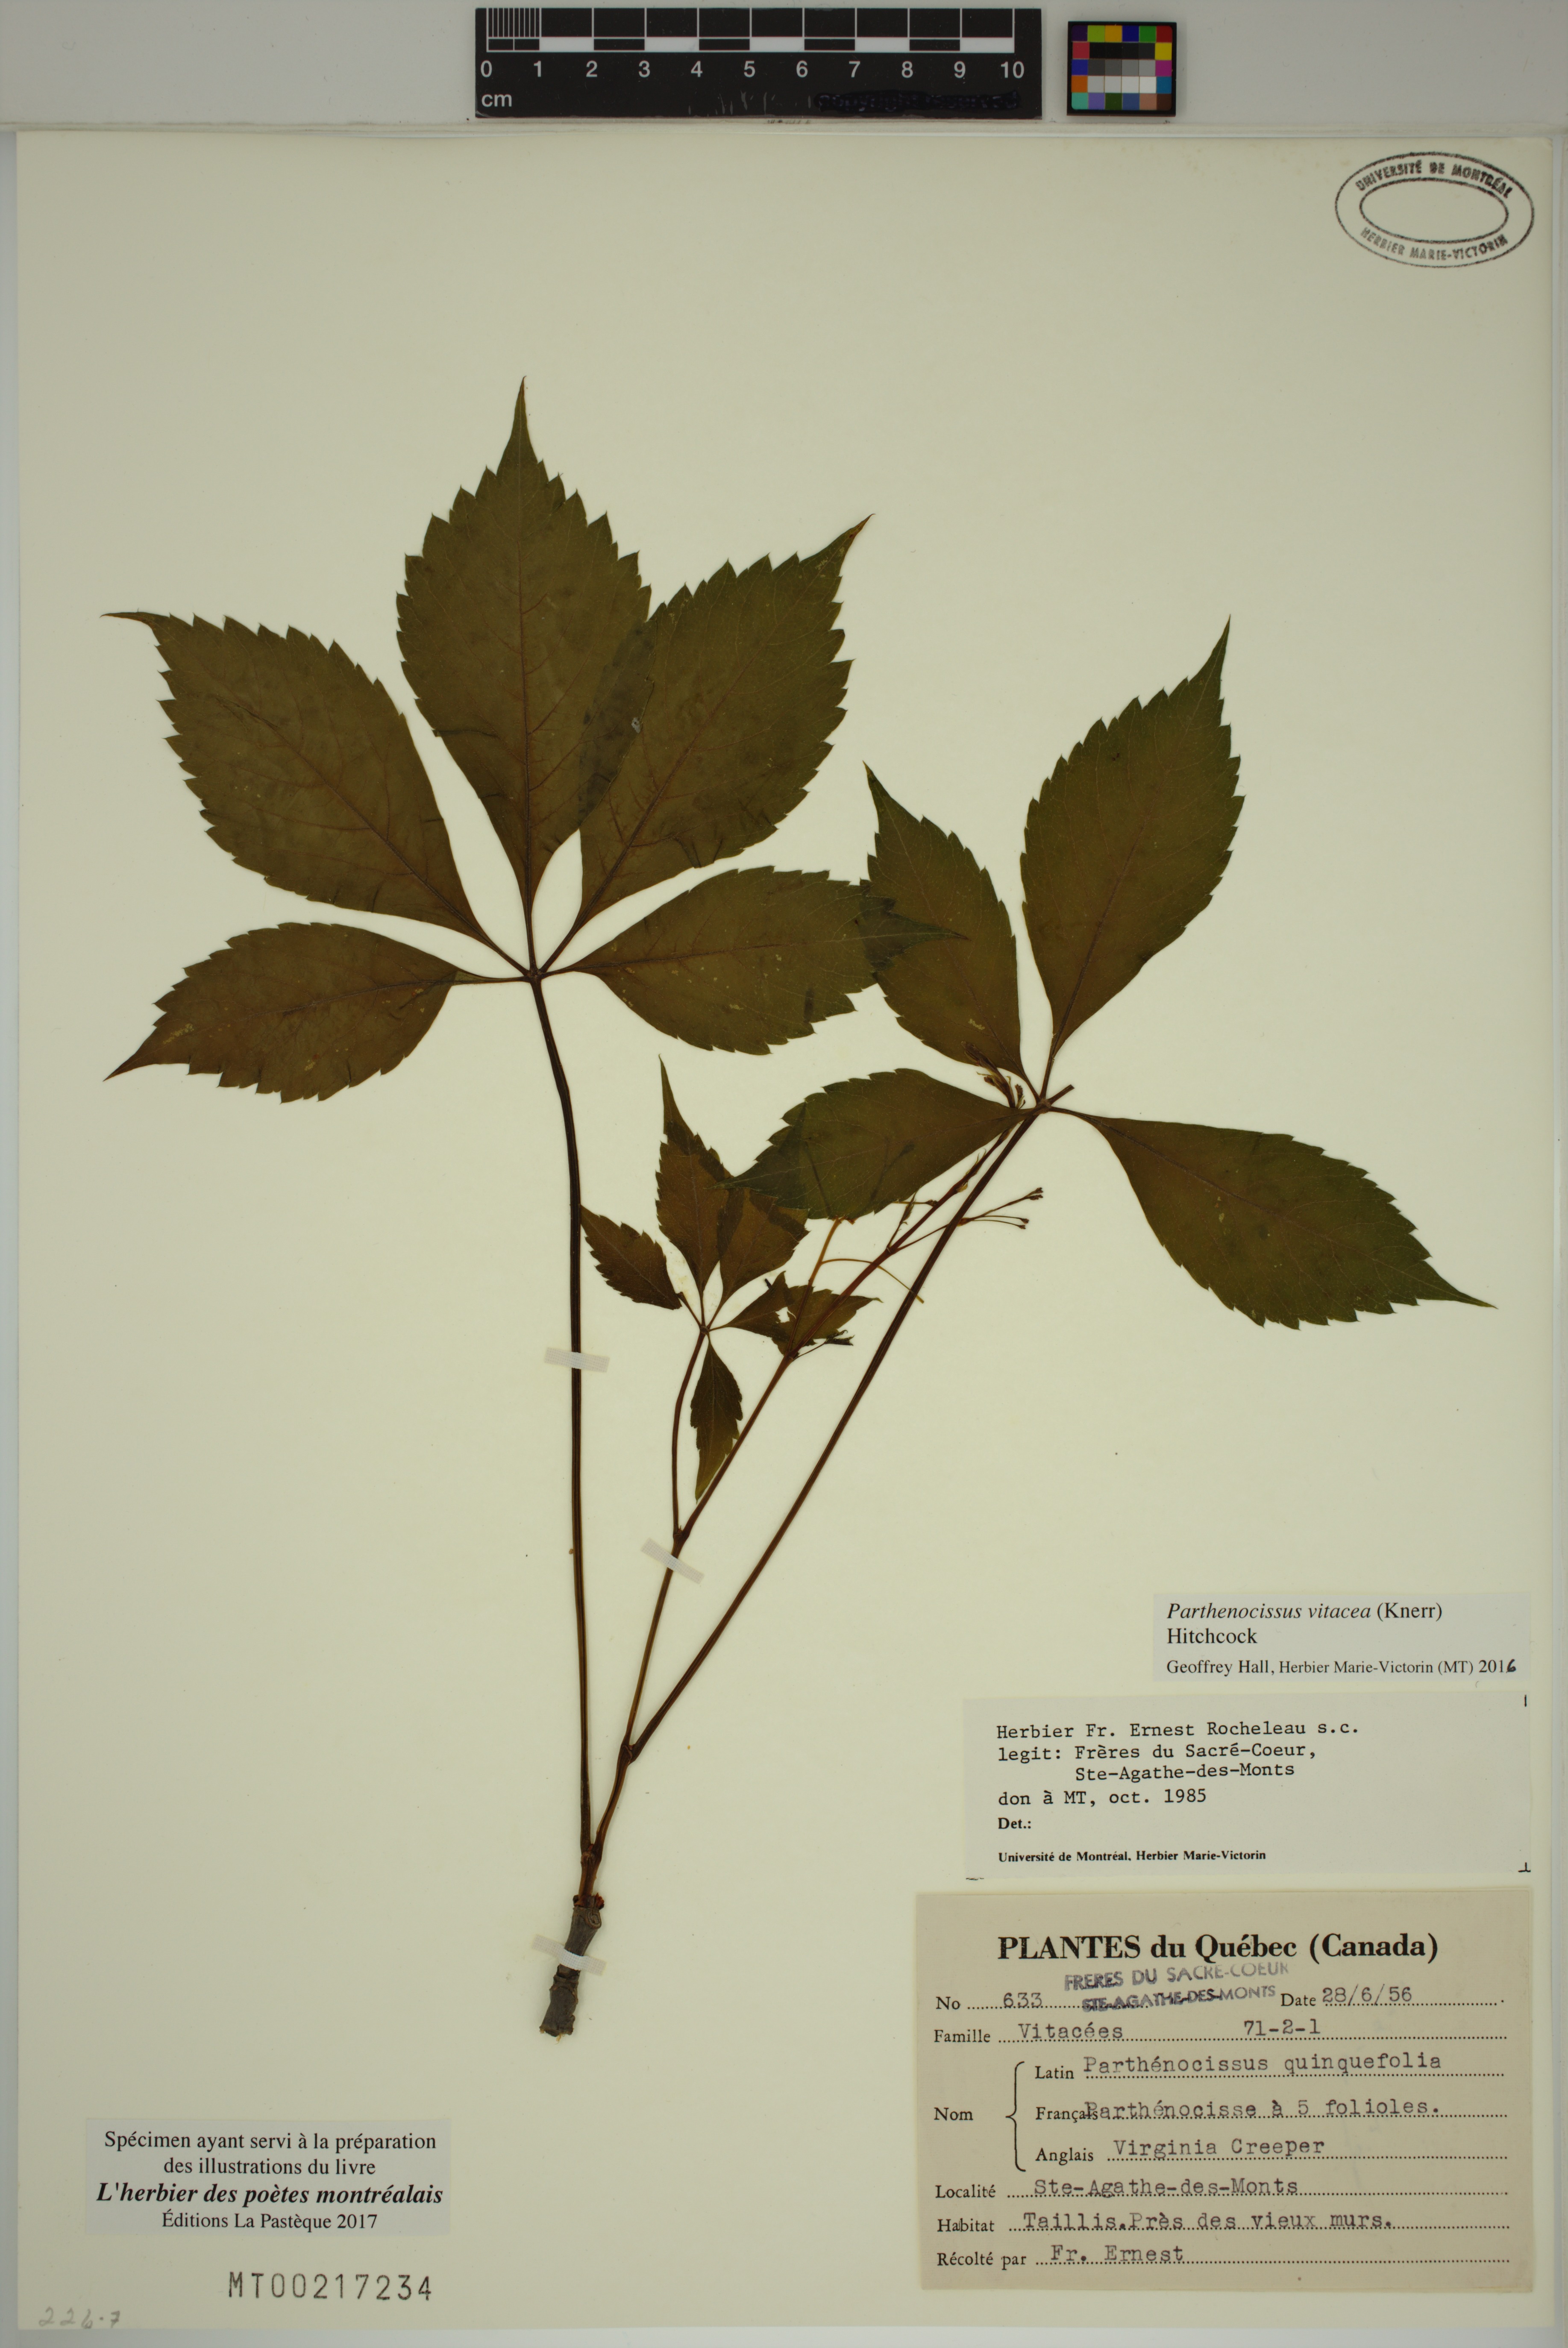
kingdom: Plantae
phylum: Tracheophyta
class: Magnoliopsida
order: Vitales
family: Vitaceae
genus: Parthenocissus
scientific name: Parthenocissus inserta
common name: False virginia-creeper
